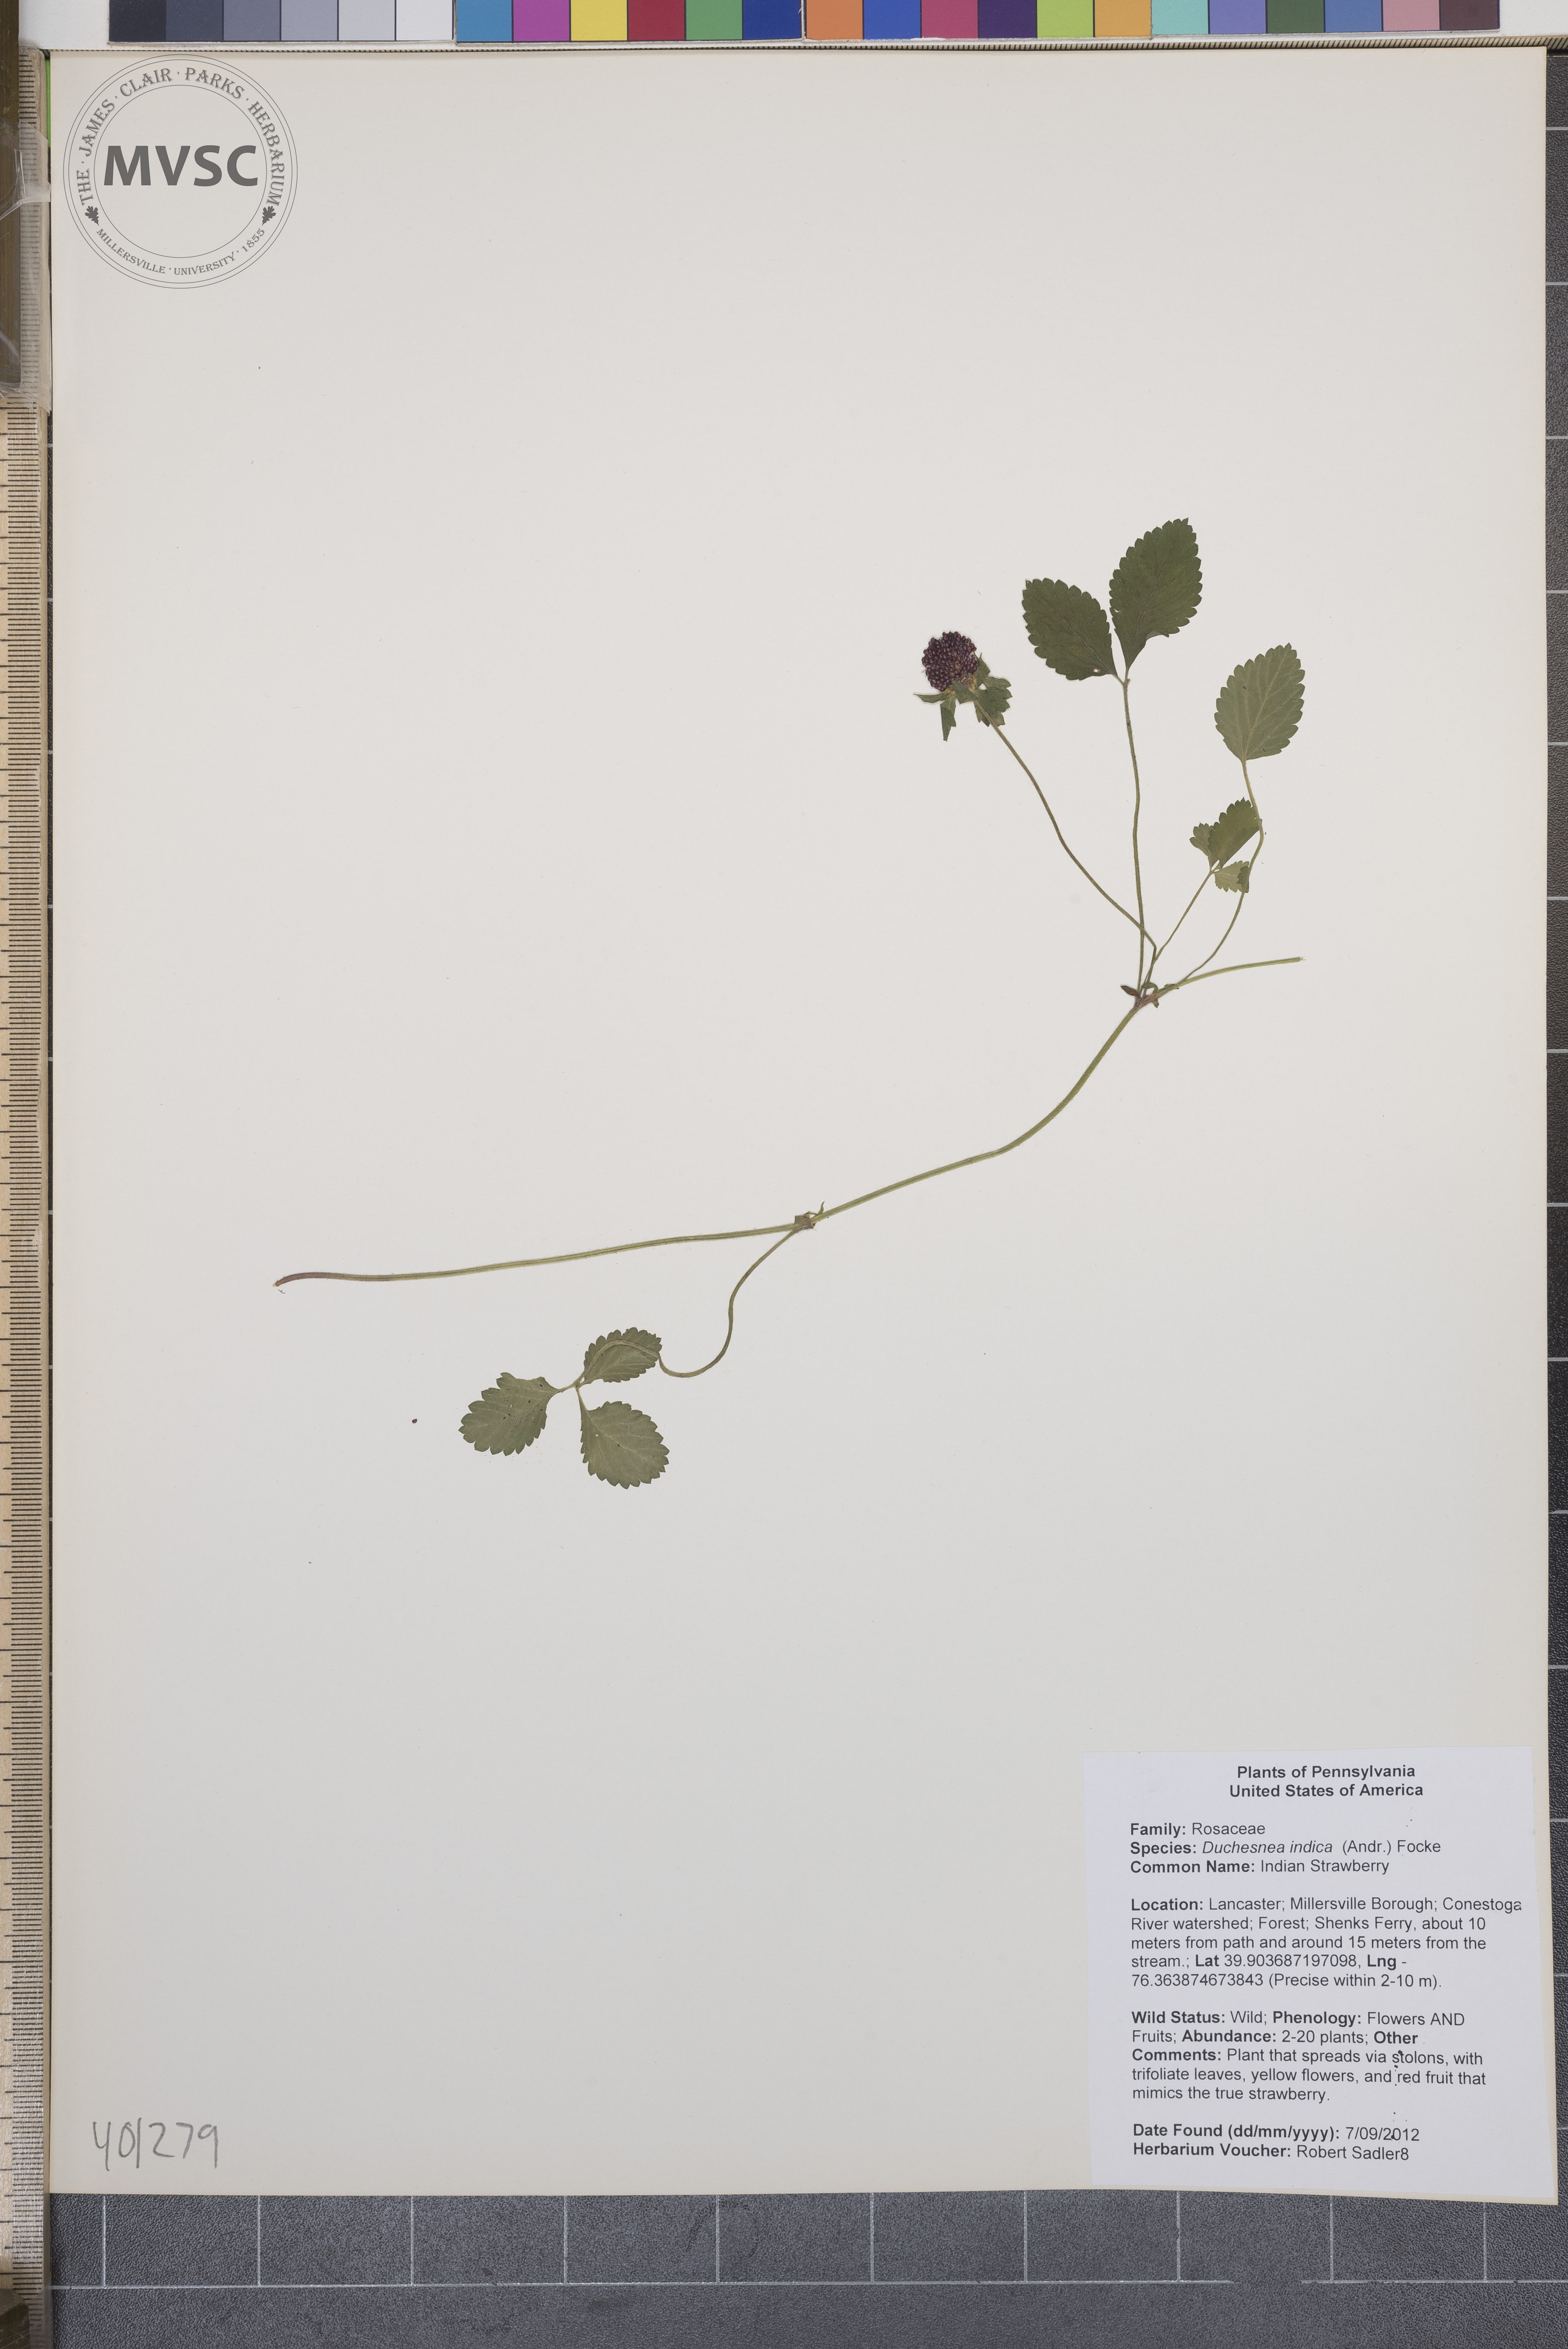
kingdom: Plantae
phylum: Tracheophyta
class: Magnoliopsida
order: Rosales
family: Rosaceae
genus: Potentilla
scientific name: Potentilla indica
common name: Indian-strawberry
